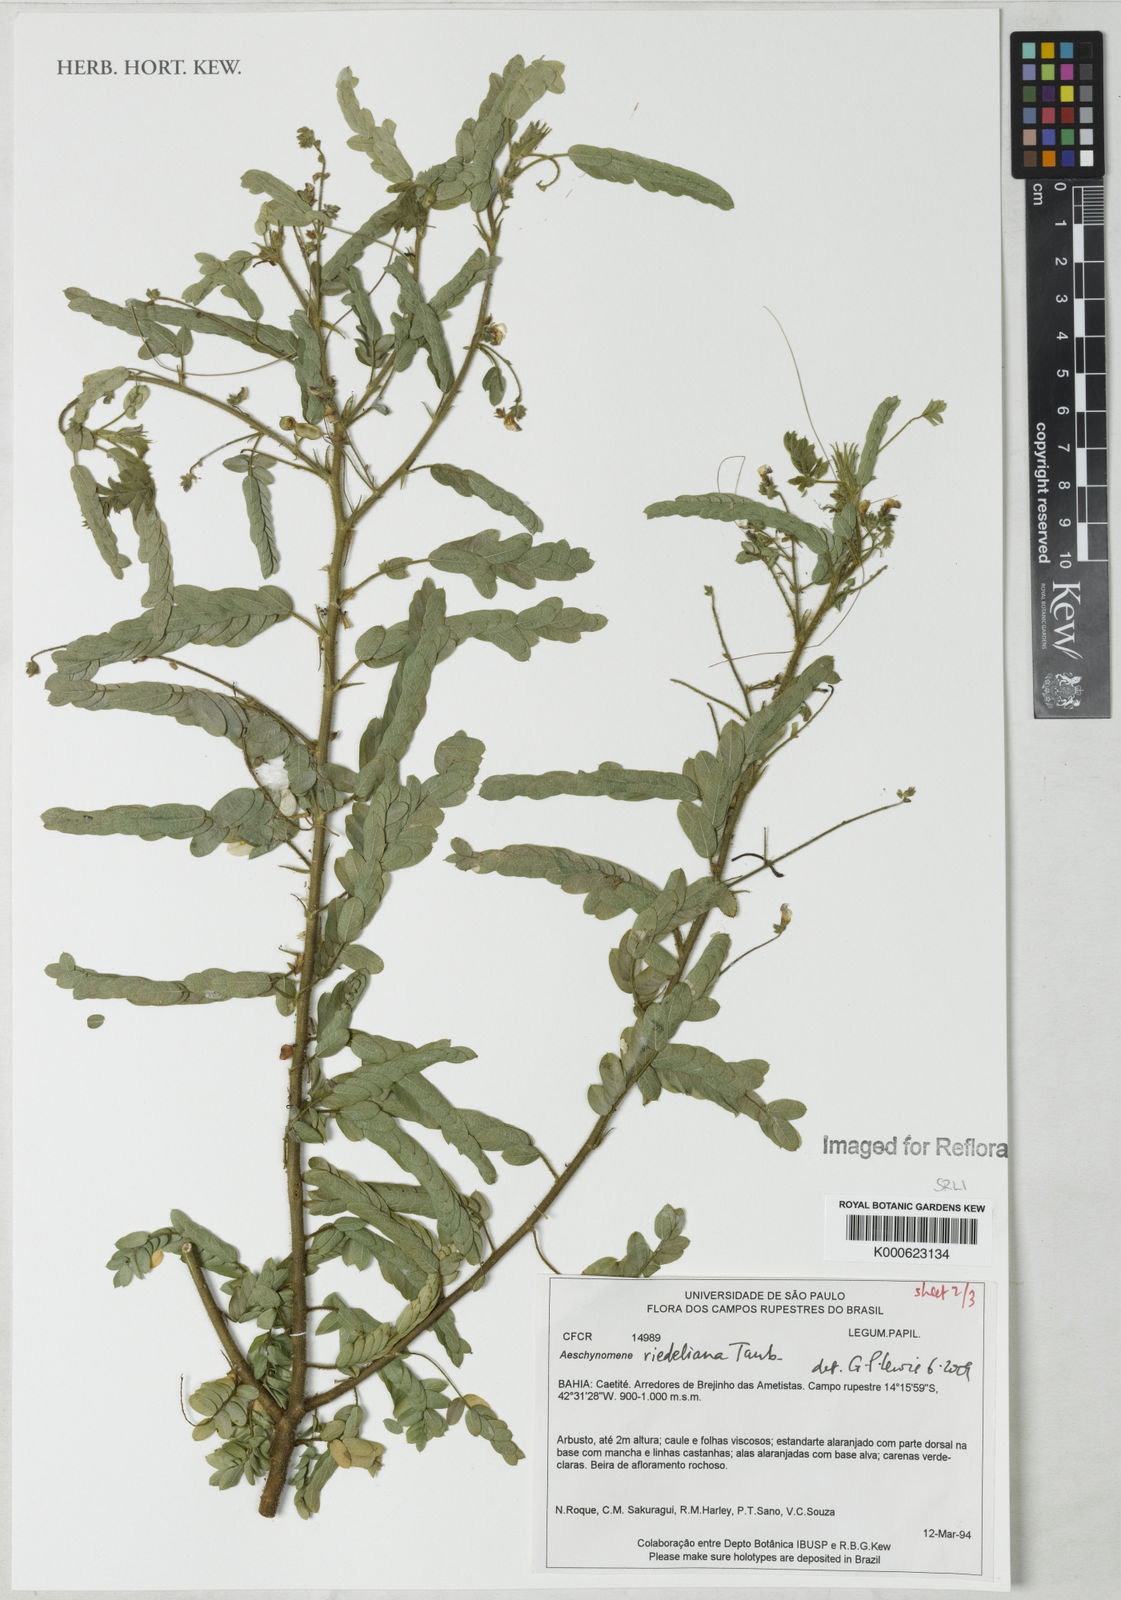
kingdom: Plantae
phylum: Tracheophyta
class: Magnoliopsida
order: Fabales
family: Fabaceae
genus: Ctenodon
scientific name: Ctenodon riedelianus
